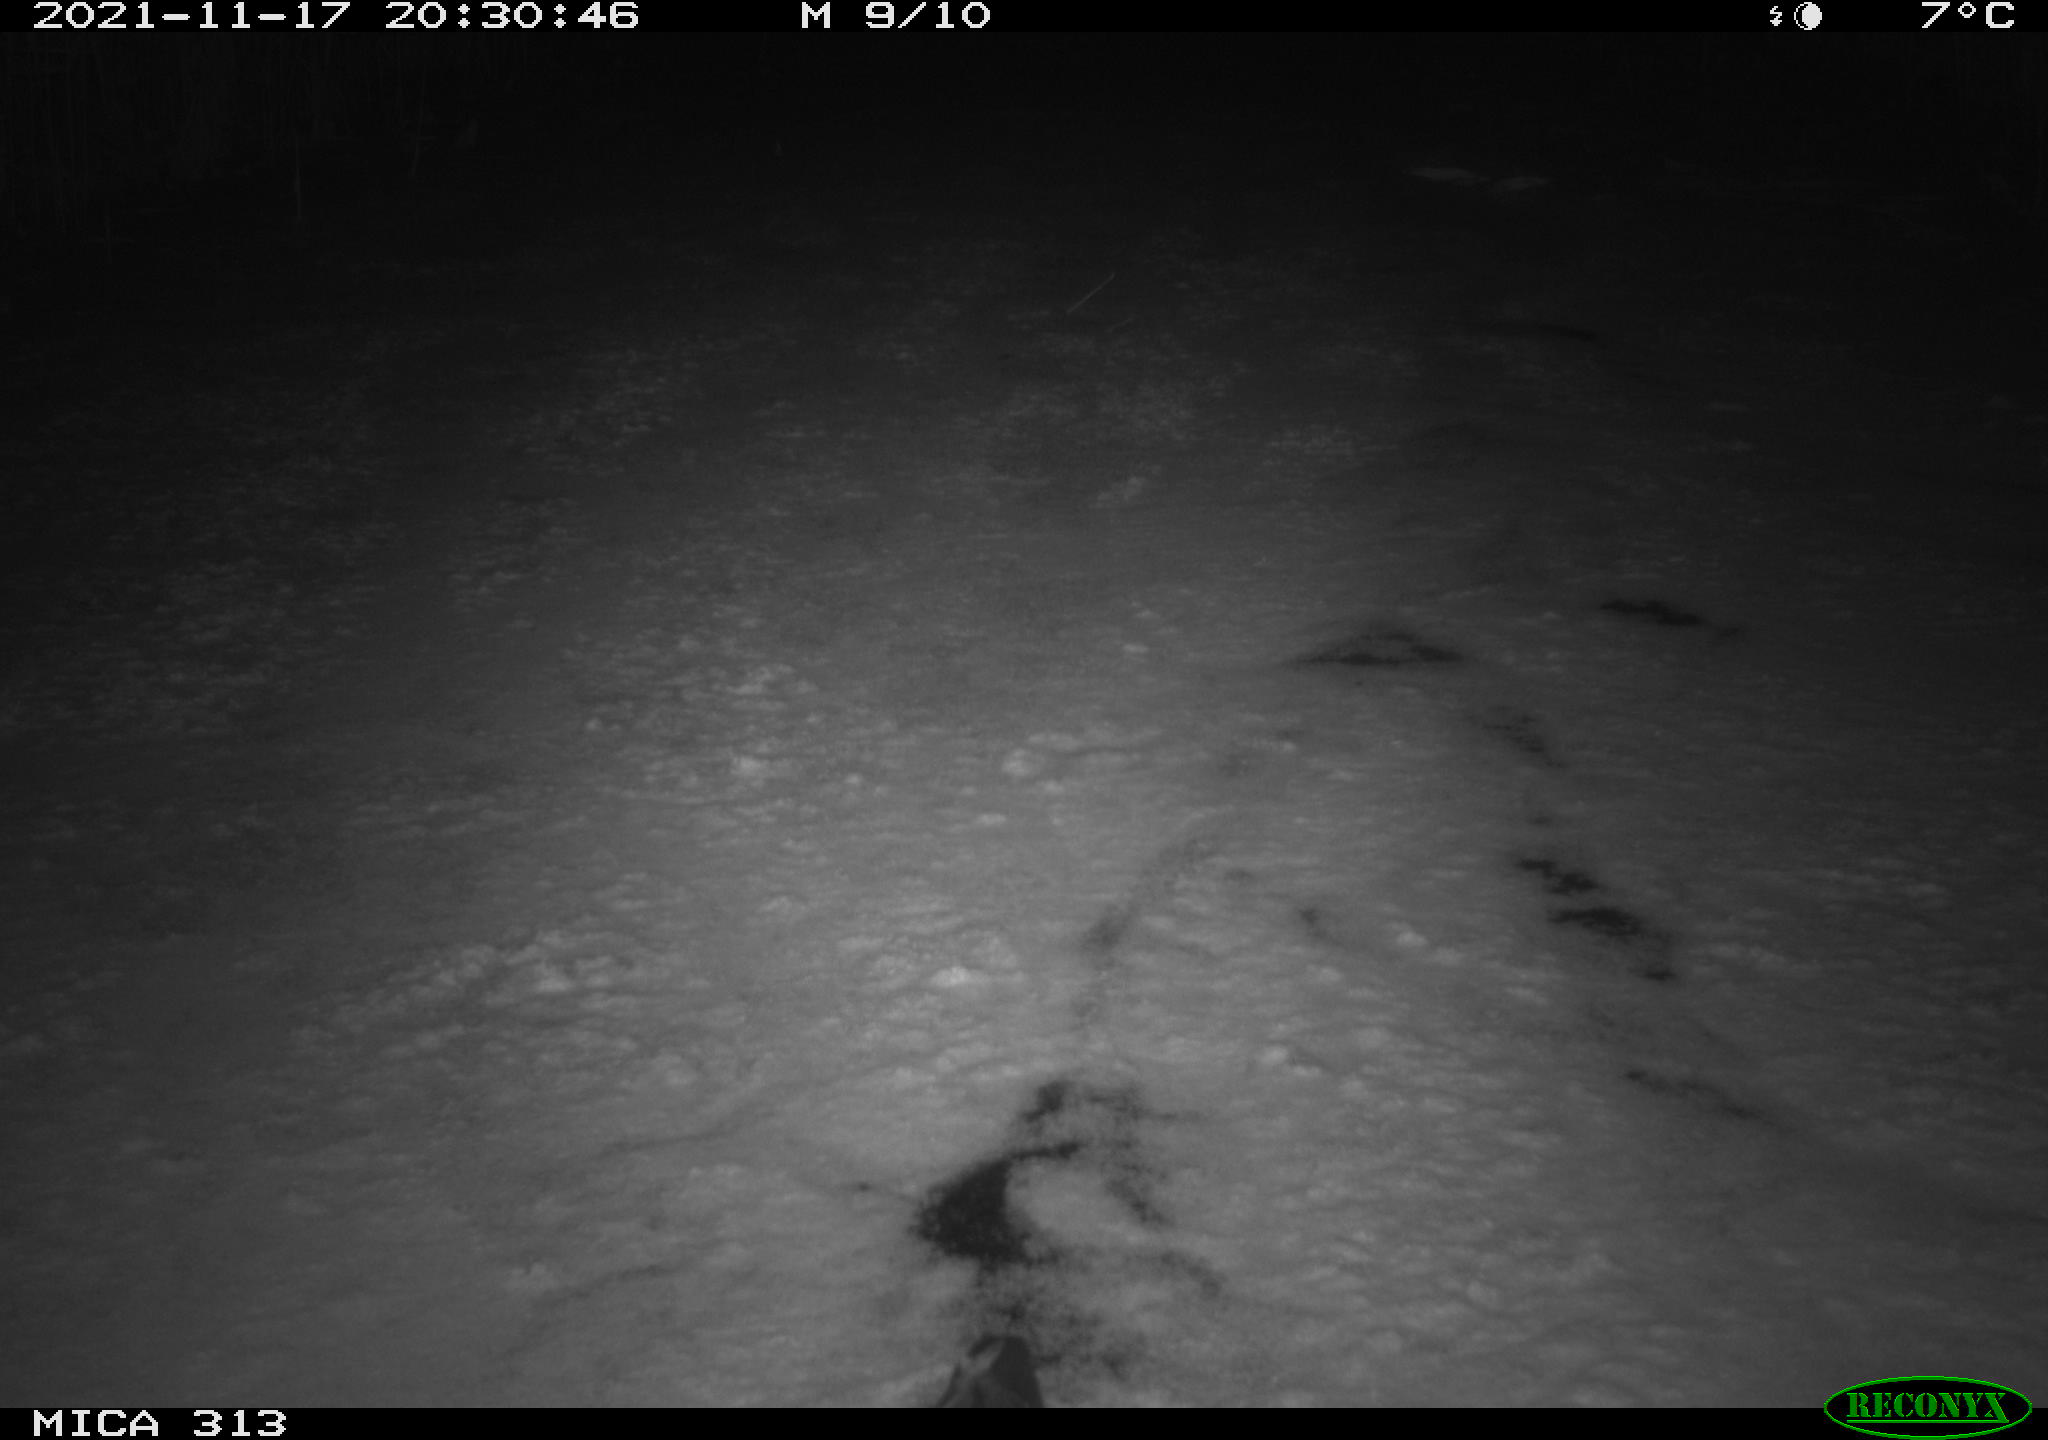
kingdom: Animalia
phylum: Chordata
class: Aves
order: Gruiformes
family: Rallidae
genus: Fulica
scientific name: Fulica atra
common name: Eurasian coot
